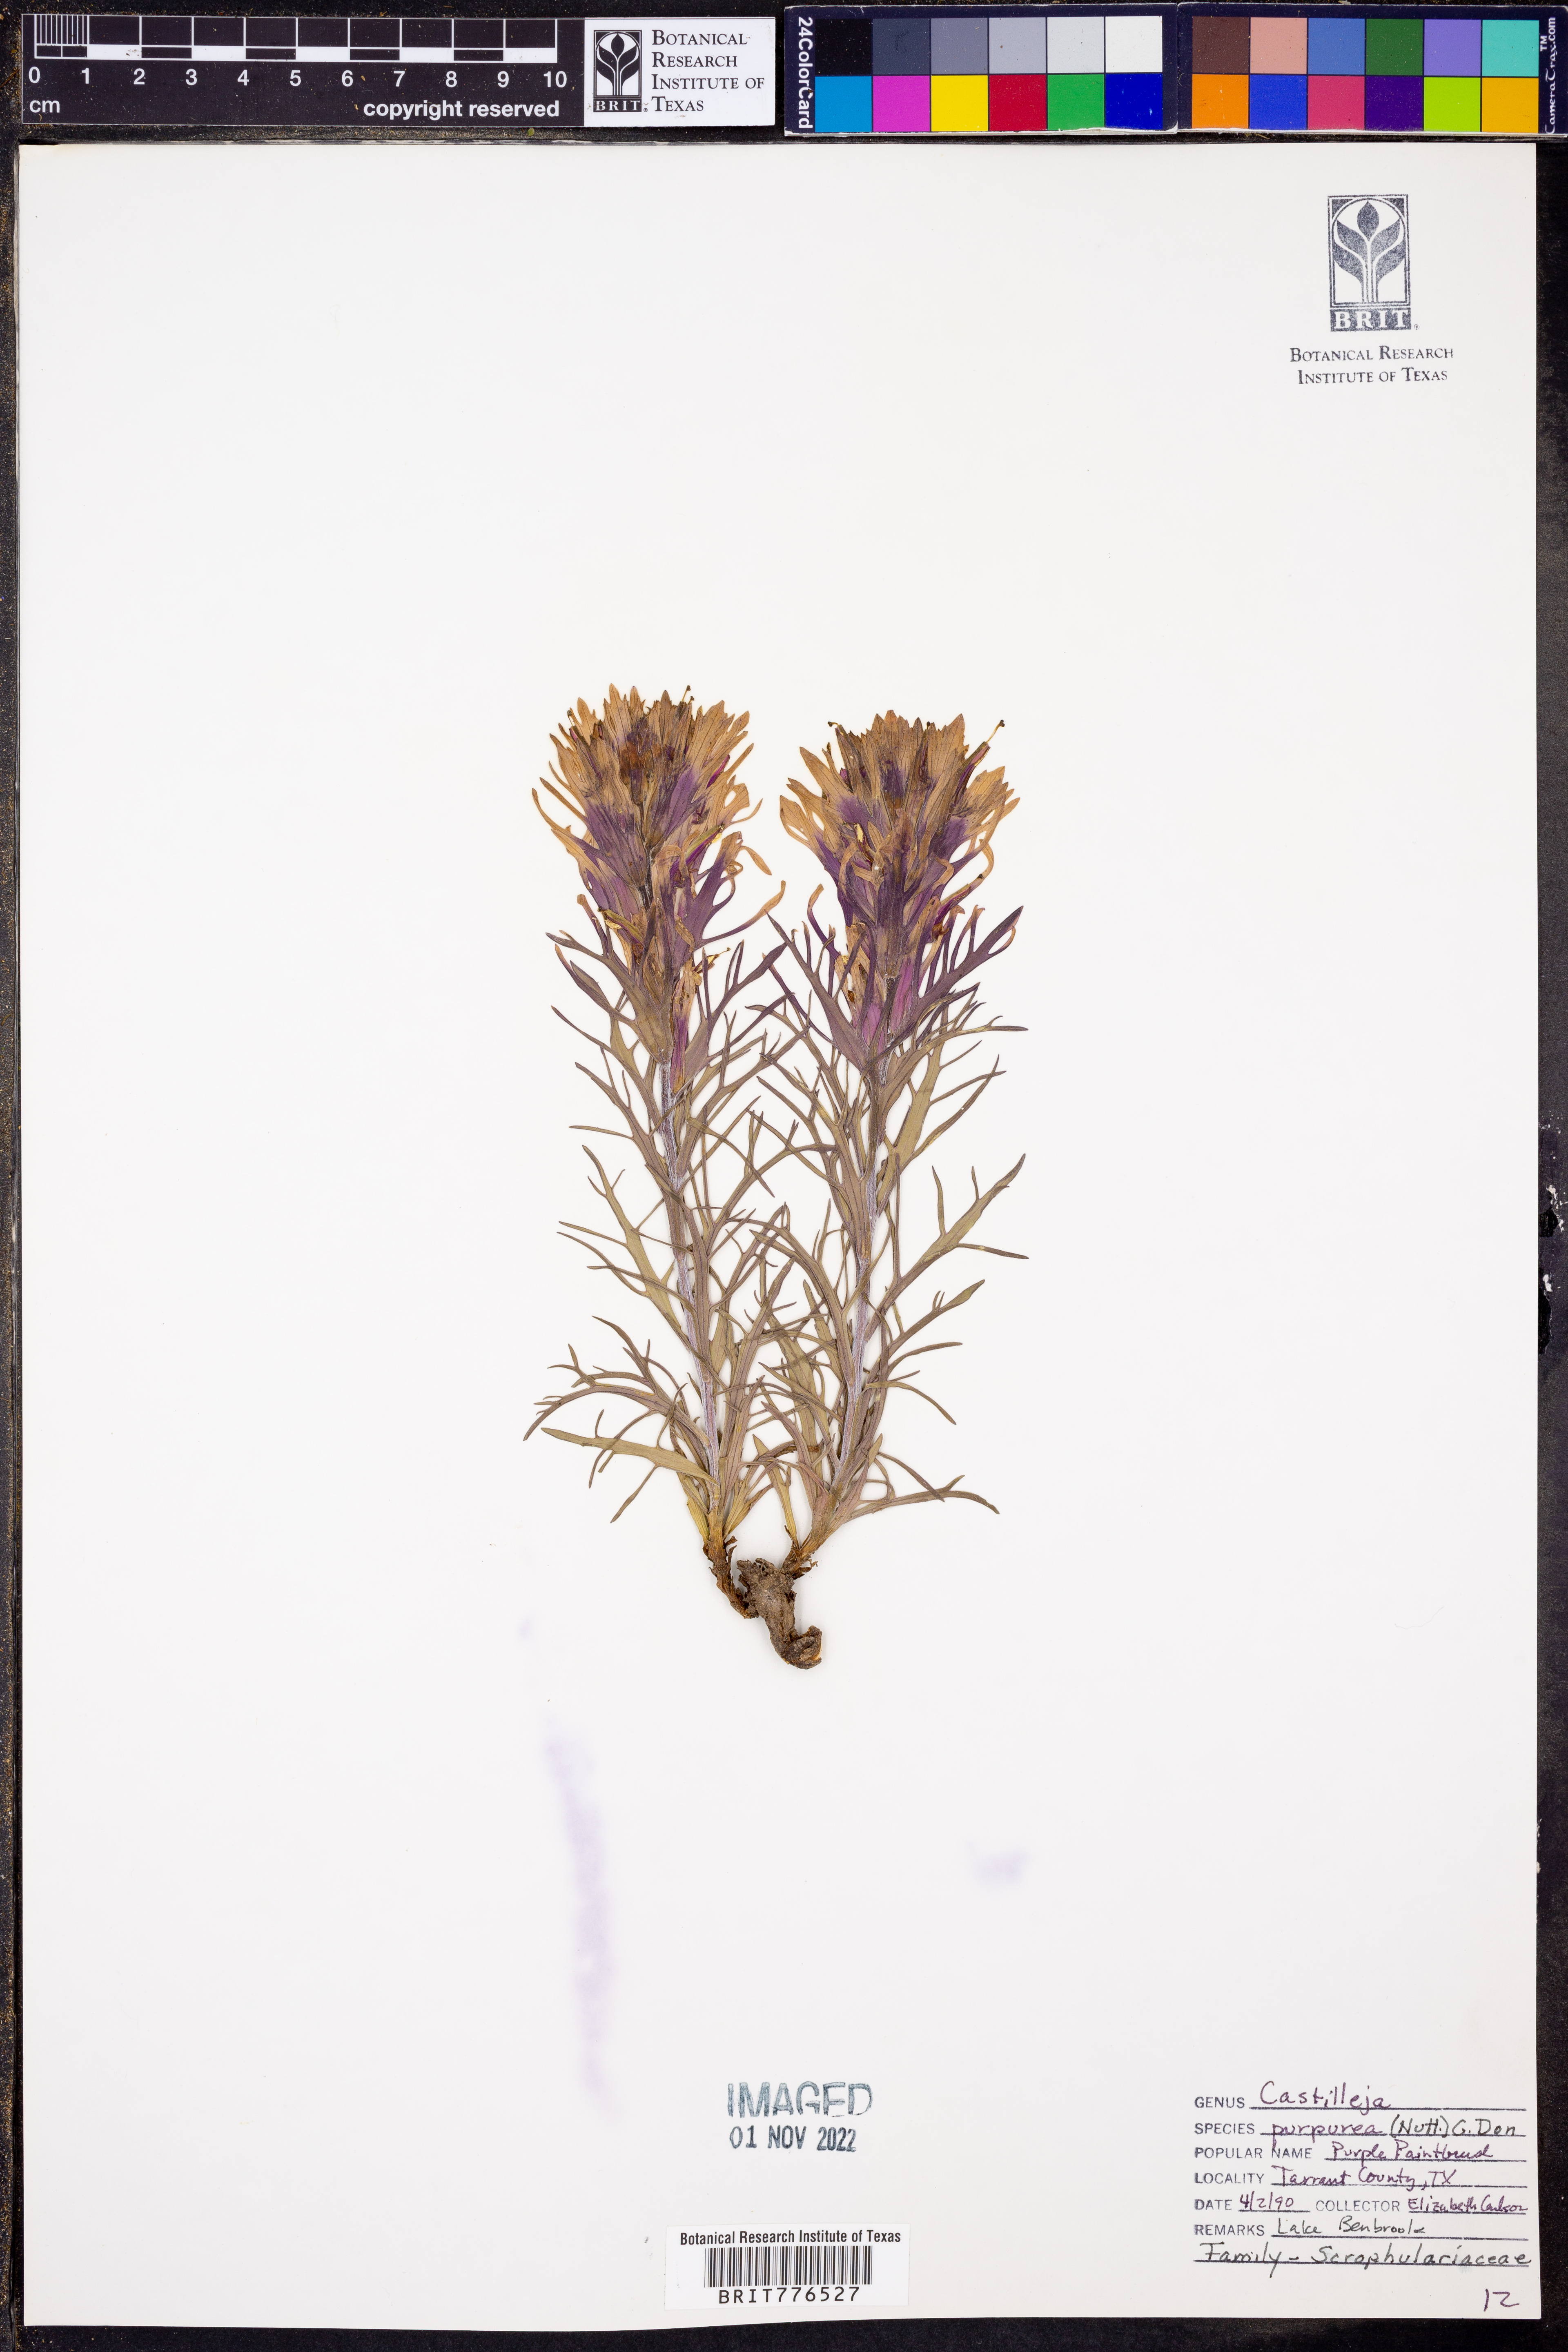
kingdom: Plantae
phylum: Tracheophyta
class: Magnoliopsida
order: Lamiales
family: Orobanchaceae
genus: Castilleja
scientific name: Castilleja purpurea
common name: Plains paintbrush
